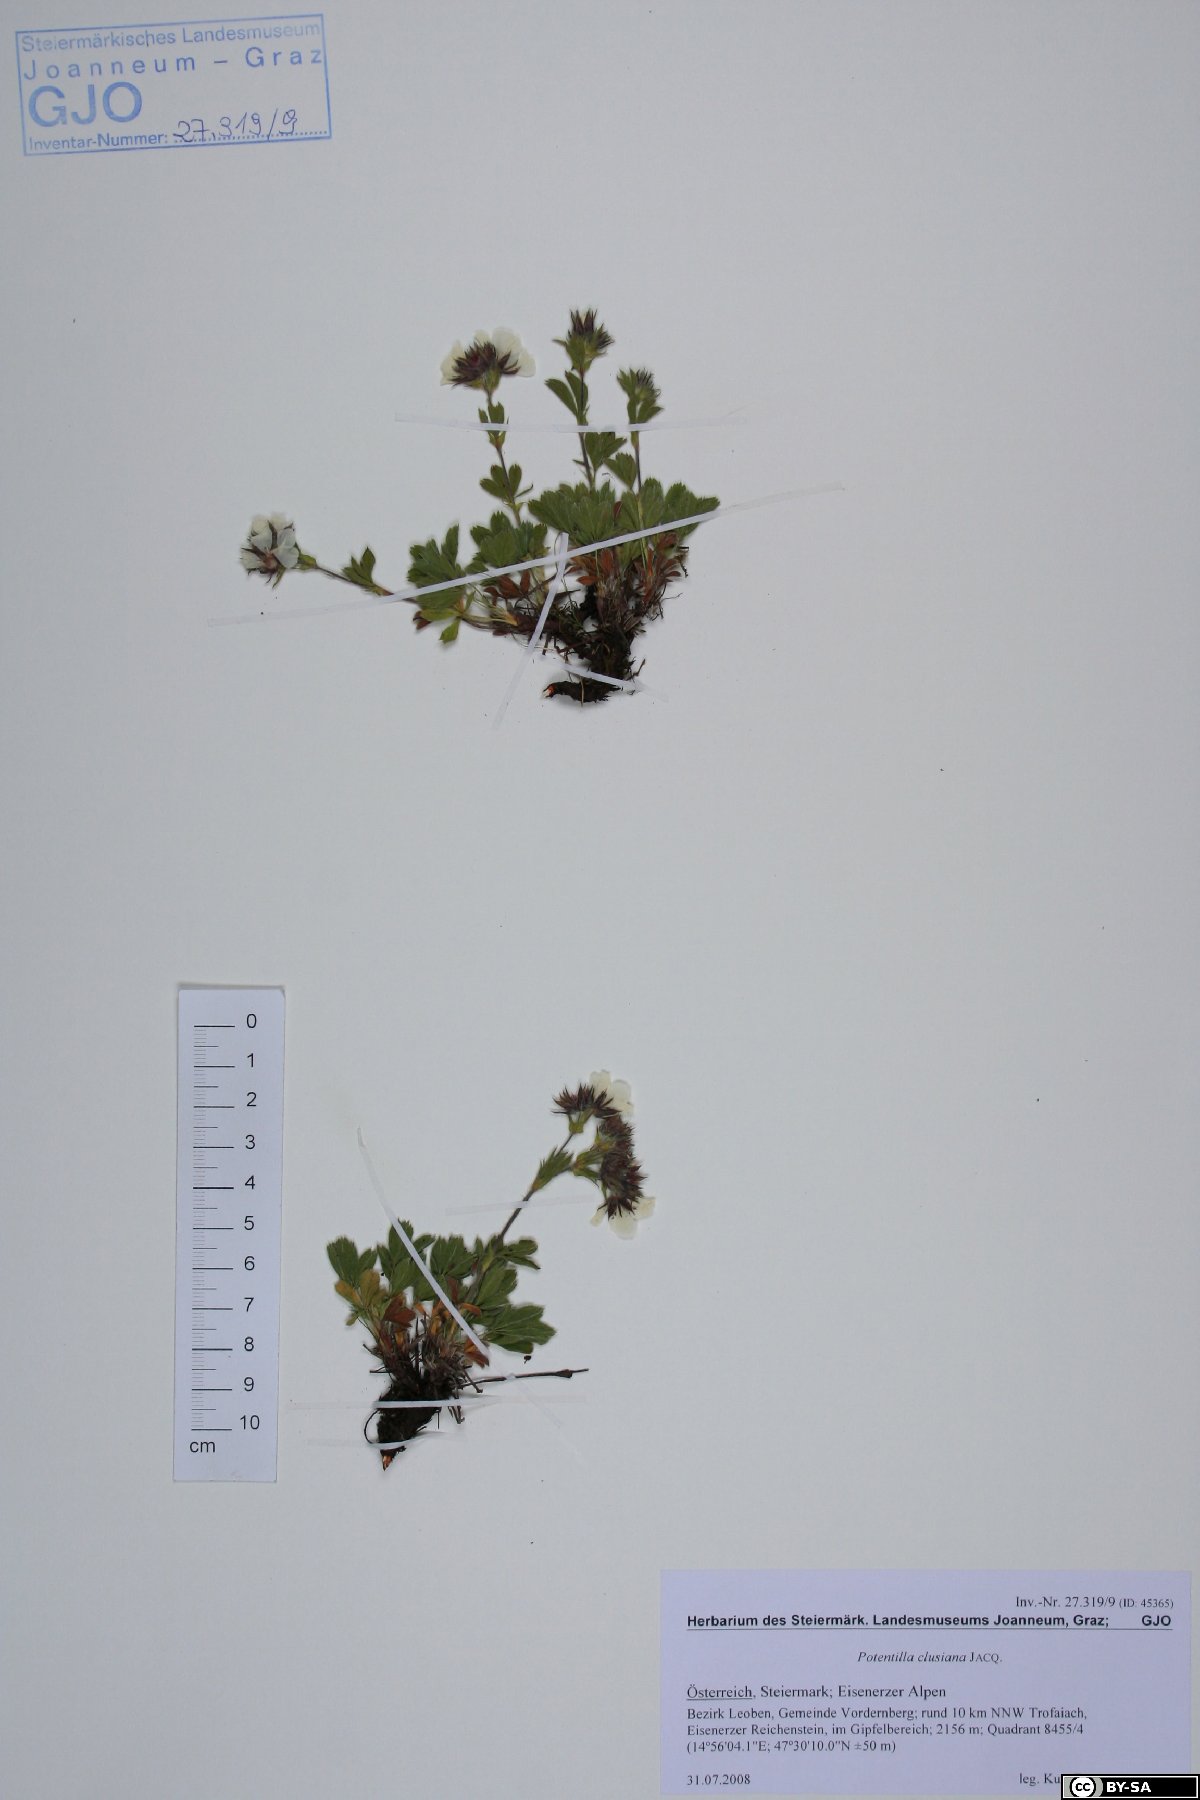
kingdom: Plantae
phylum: Tracheophyta
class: Magnoliopsida
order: Rosales
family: Rosaceae
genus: Potentilla
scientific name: Potentilla clusiana
